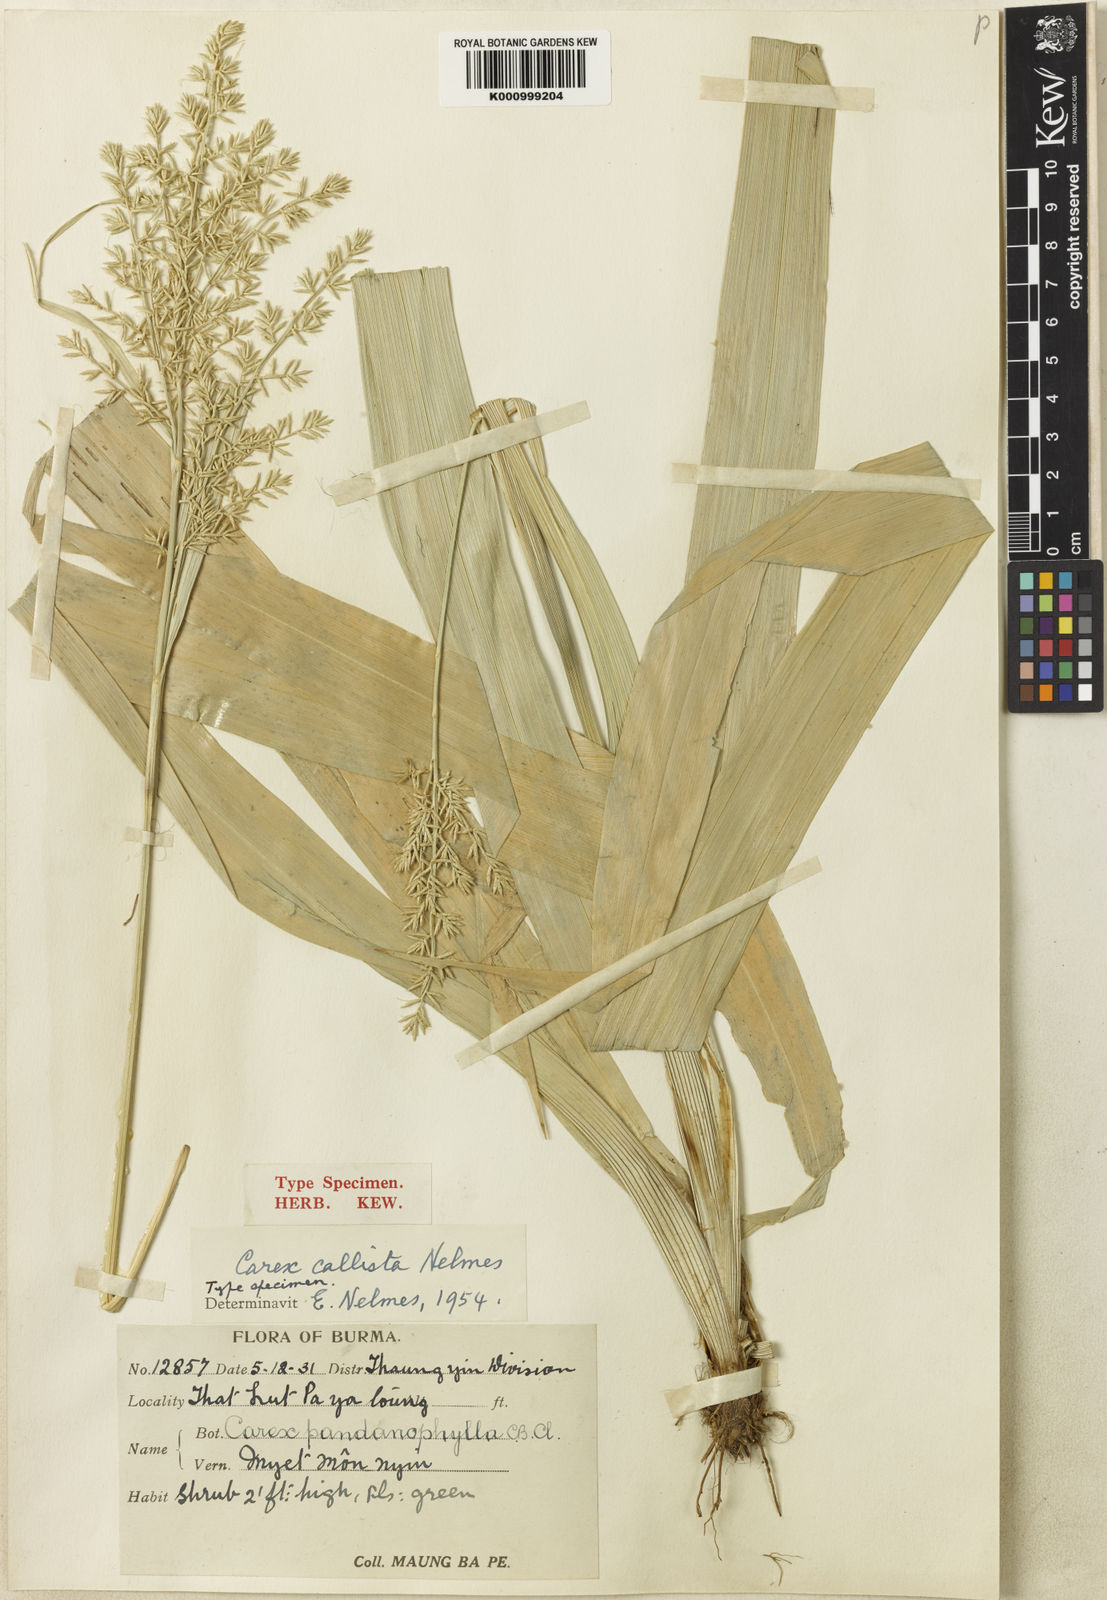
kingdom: Plantae
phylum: Tracheophyta
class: Liliopsida
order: Poales
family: Cyperaceae
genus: Carex
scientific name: Carex callista
